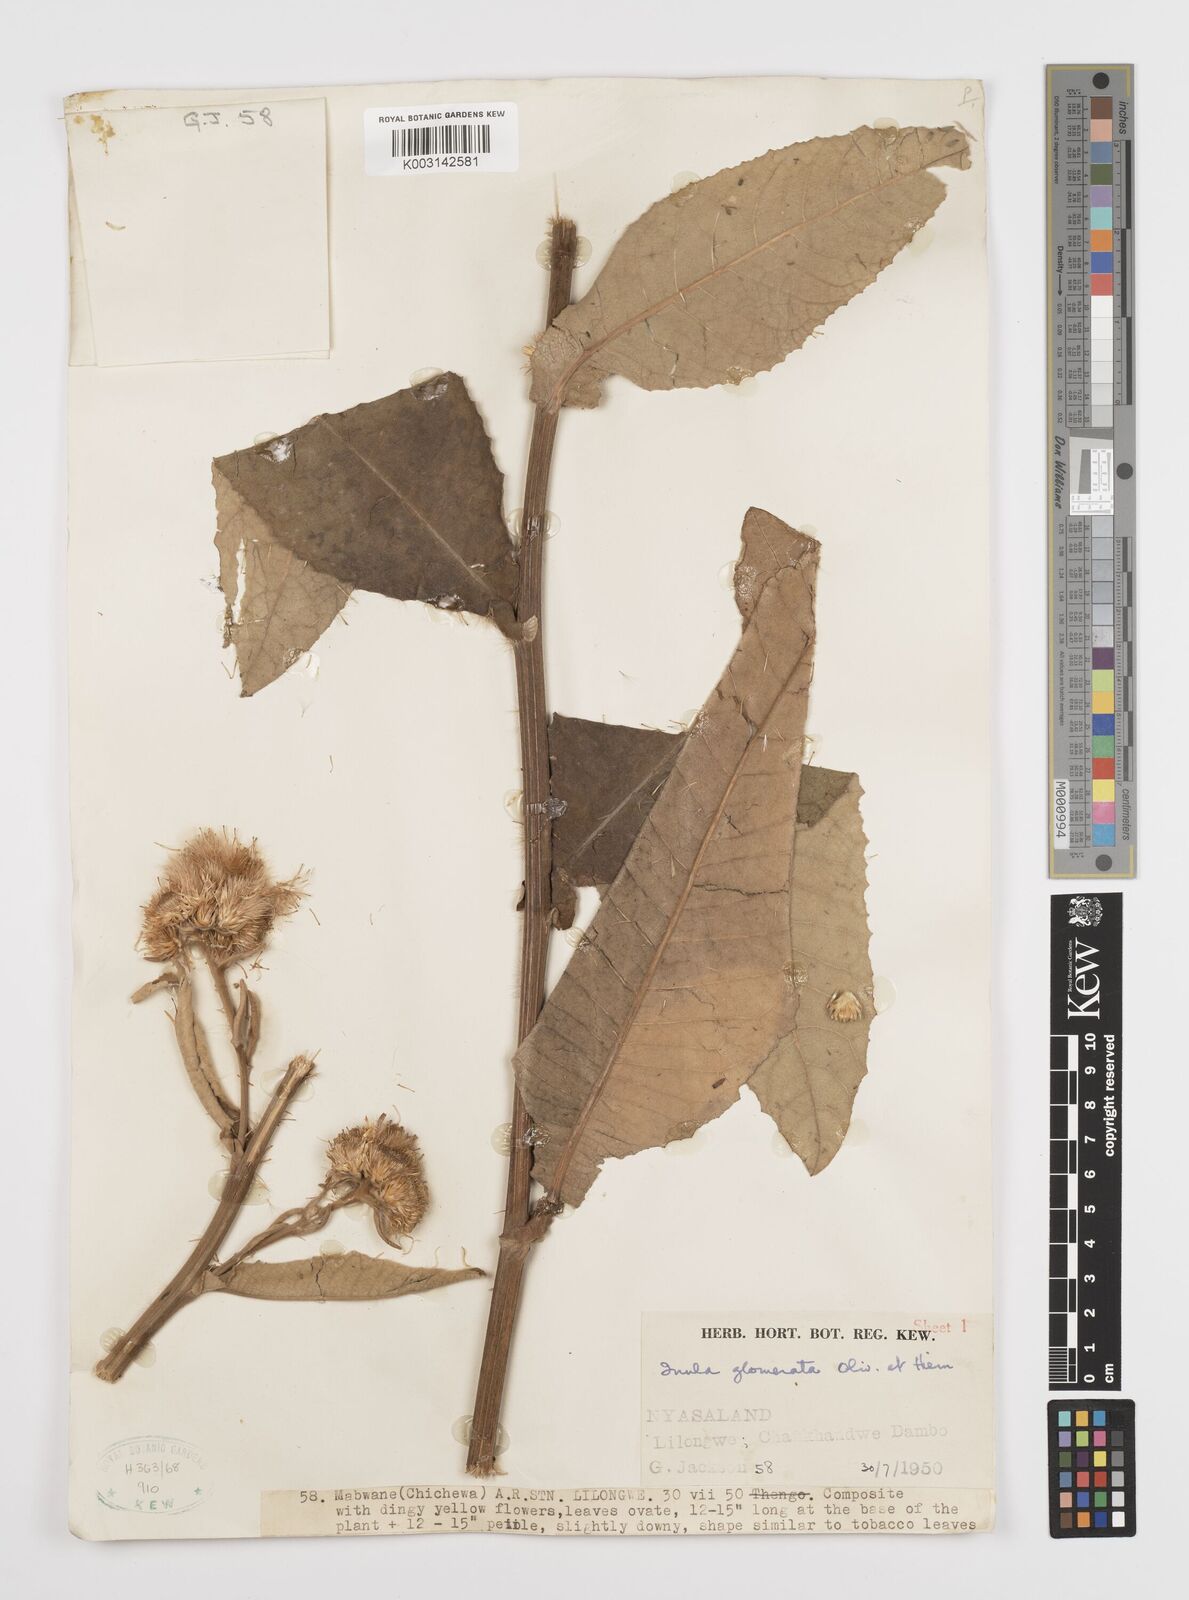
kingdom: Plantae
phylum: Tracheophyta
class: Magnoliopsida
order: Asterales
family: Asteraceae
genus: Inula
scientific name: Inula glomerata
